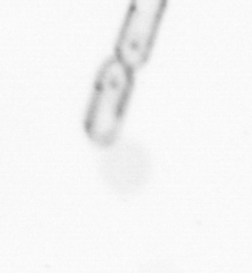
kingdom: Chromista
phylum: Ochrophyta
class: Bacillariophyceae
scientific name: Bacillariophyceae
